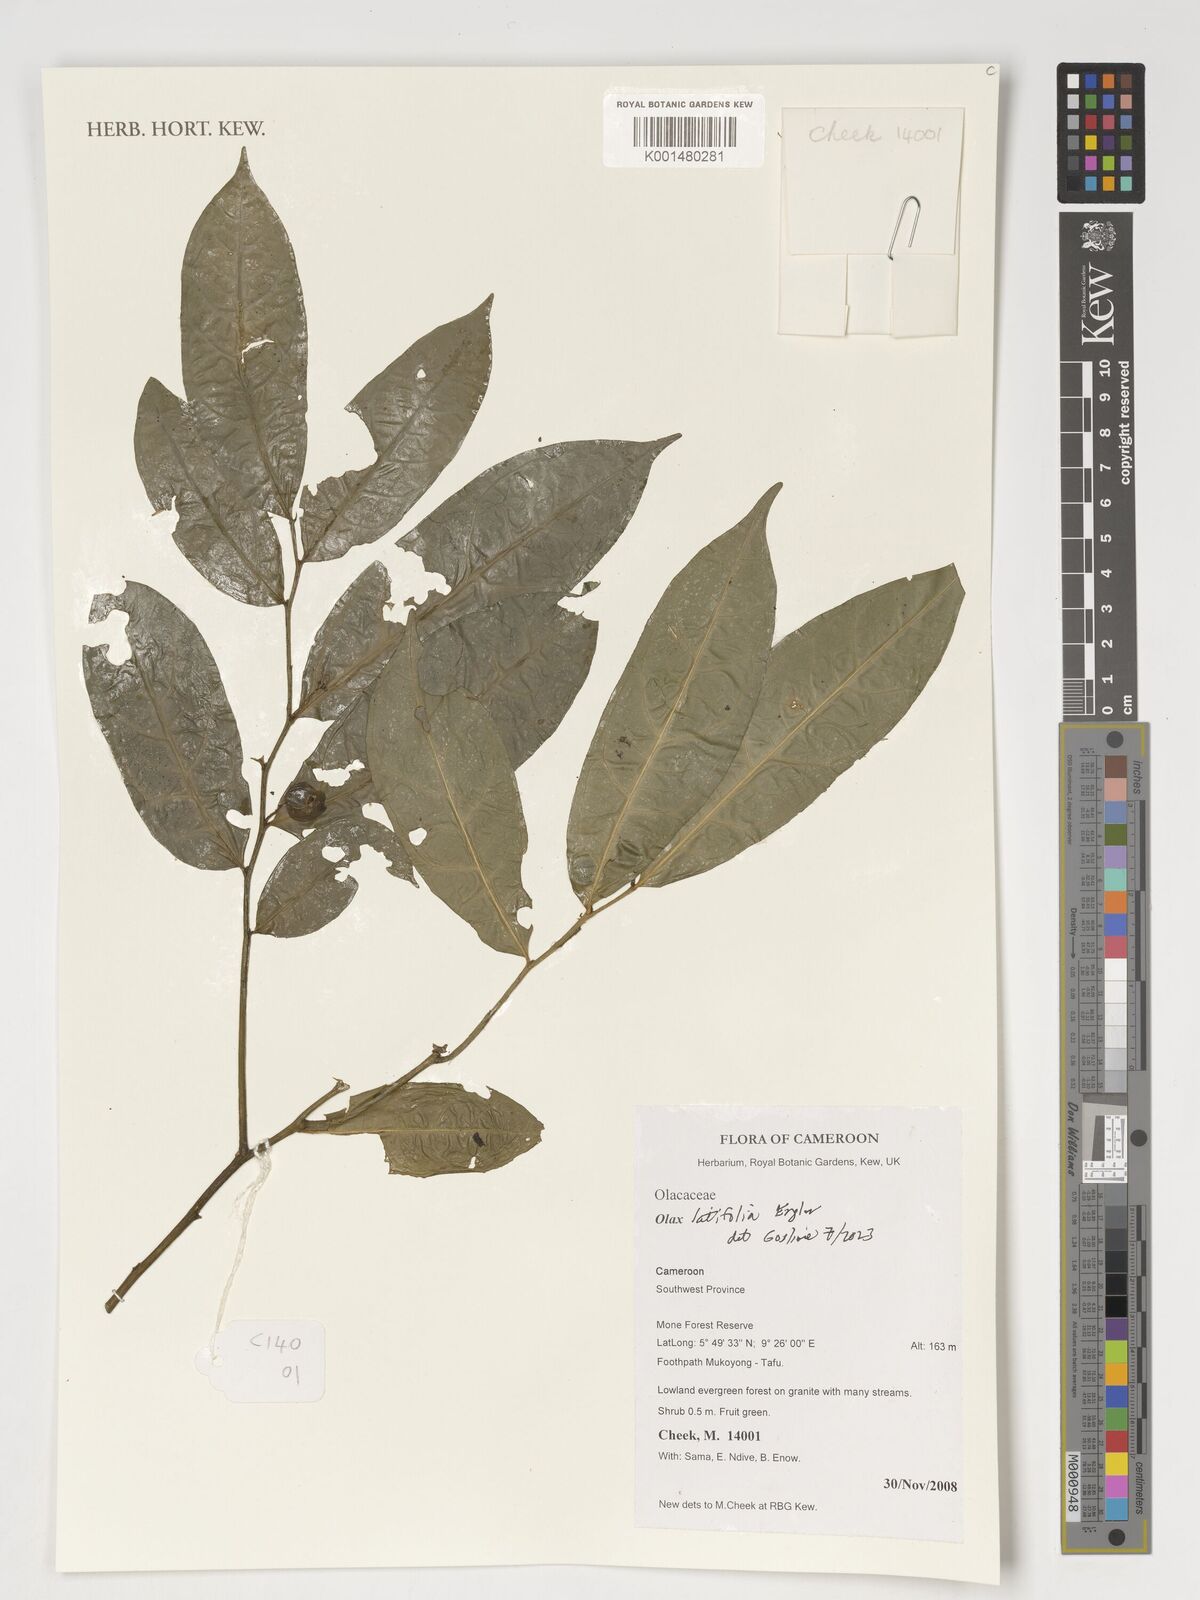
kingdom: Plantae
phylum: Tracheophyta
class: Magnoliopsida
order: Santalales
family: Olacaceae
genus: Olax
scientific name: Olax latifolia
